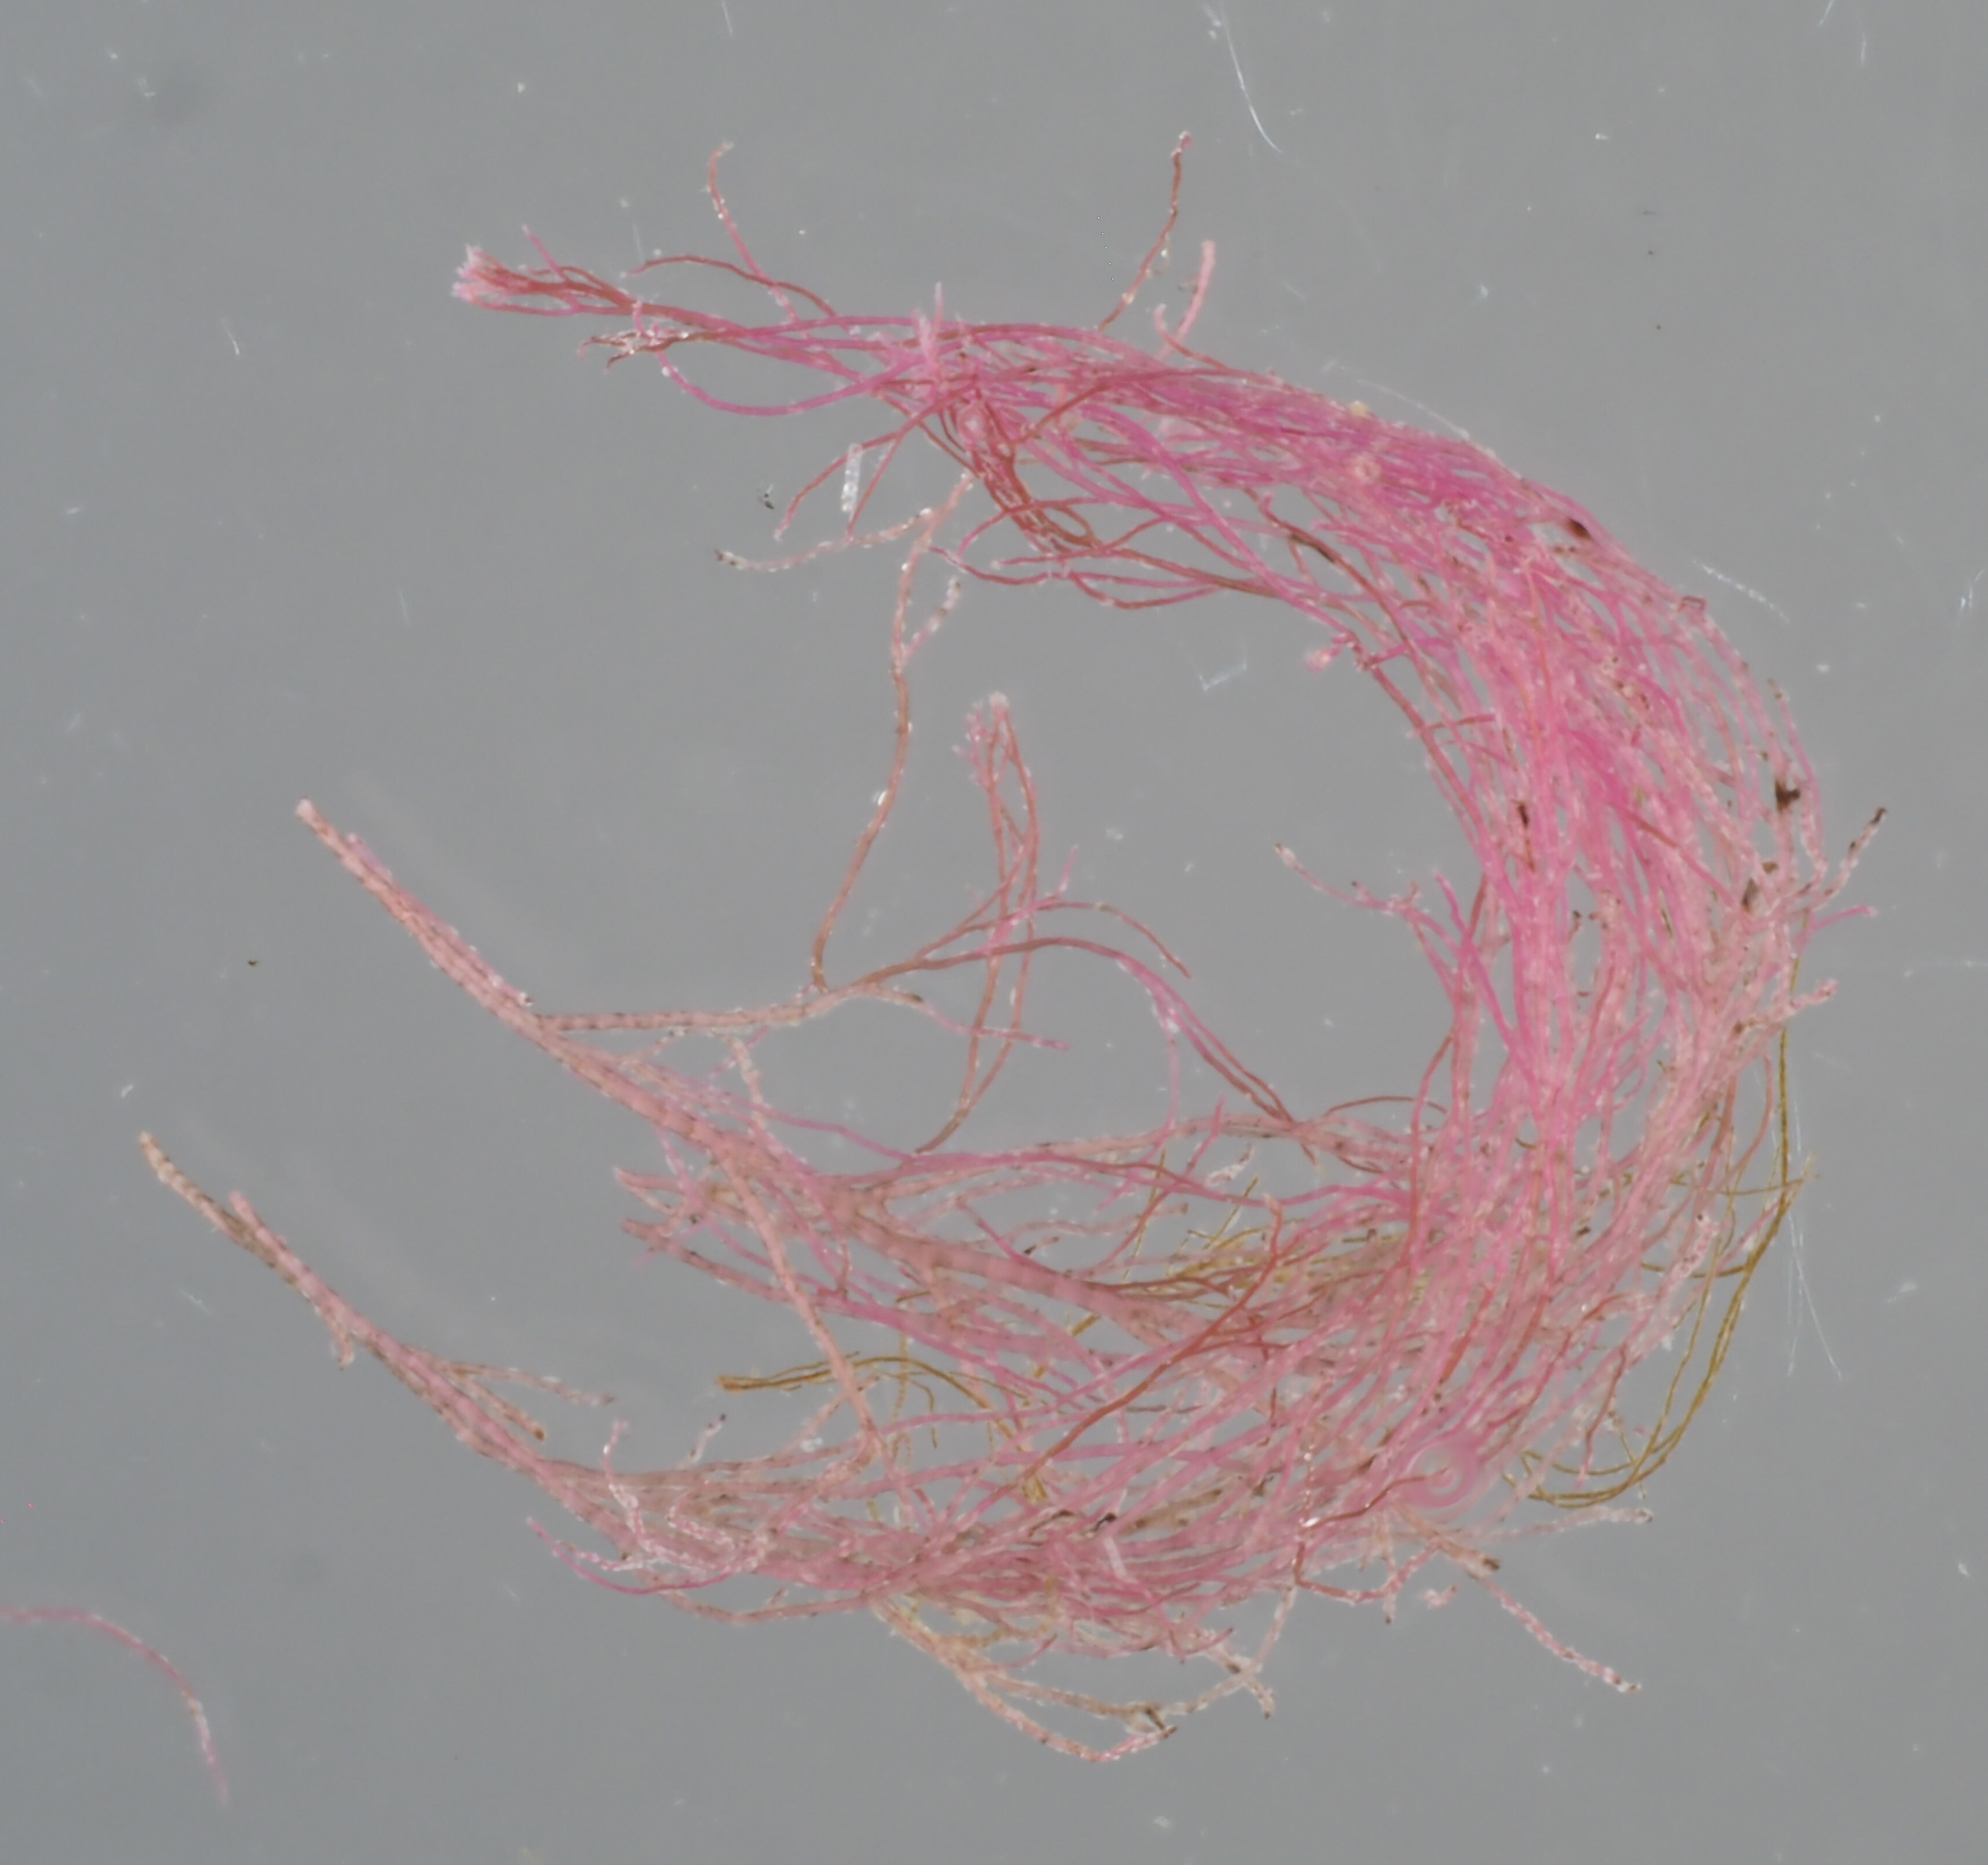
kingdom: Plantae
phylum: Rhodophyta
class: Florideophyceae
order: Ceramiales
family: Rhodomelaceae
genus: Vertebrata
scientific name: Vertebrata spec
